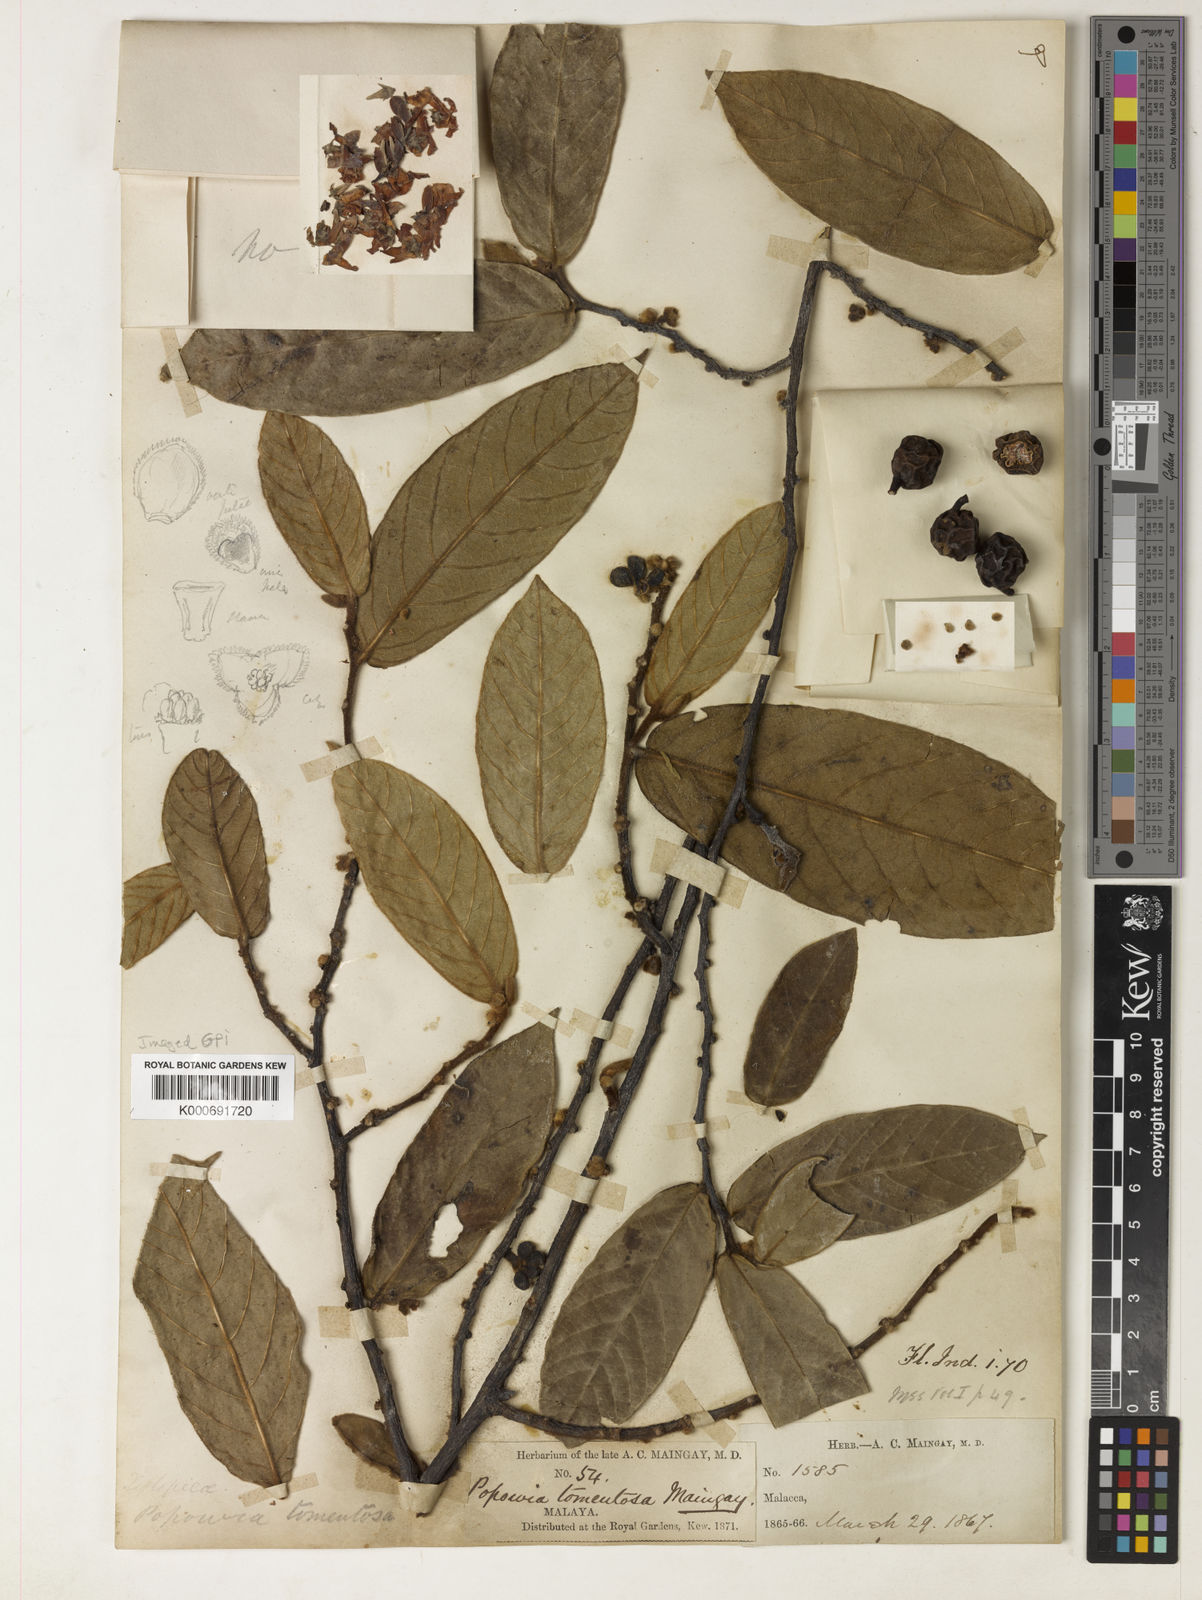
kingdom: Plantae
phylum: Tracheophyta
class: Magnoliopsida
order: Magnoliales
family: Annonaceae
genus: Popowia
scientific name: Popowia tomentosa
